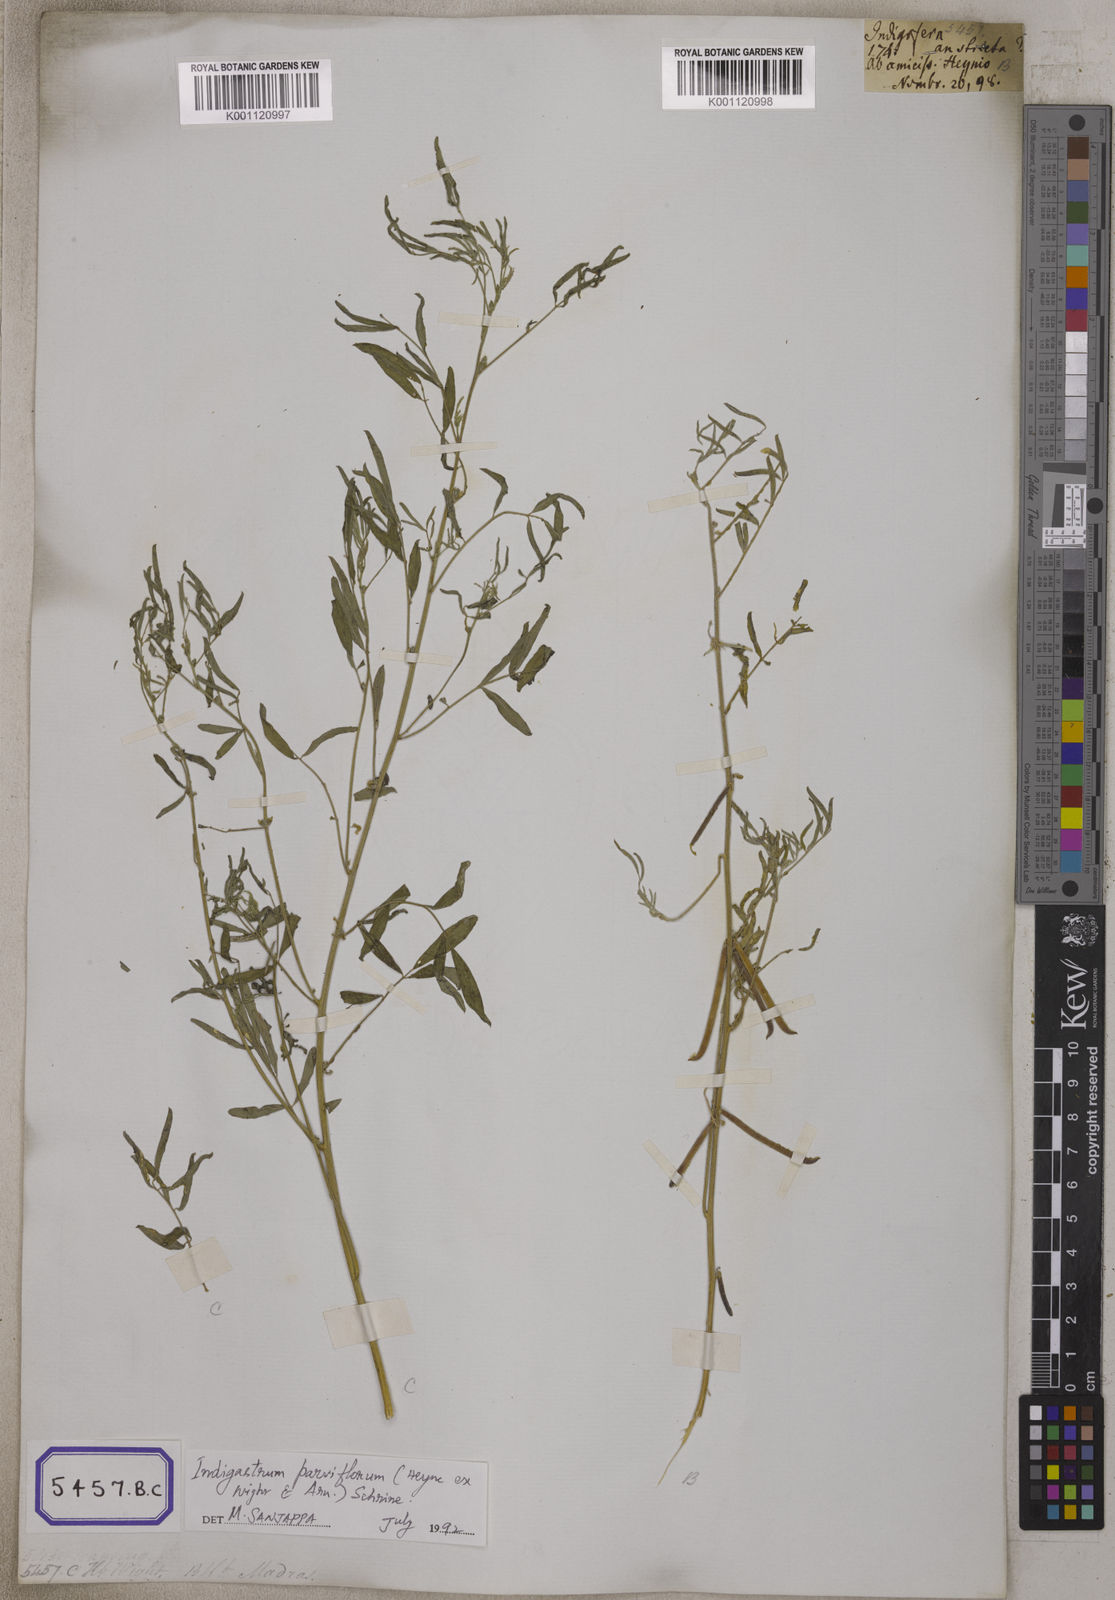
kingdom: Plantae
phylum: Tracheophyta
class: Magnoliopsida
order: Fabales
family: Fabaceae
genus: Indigastrum
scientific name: Indigastrum parviflorum
